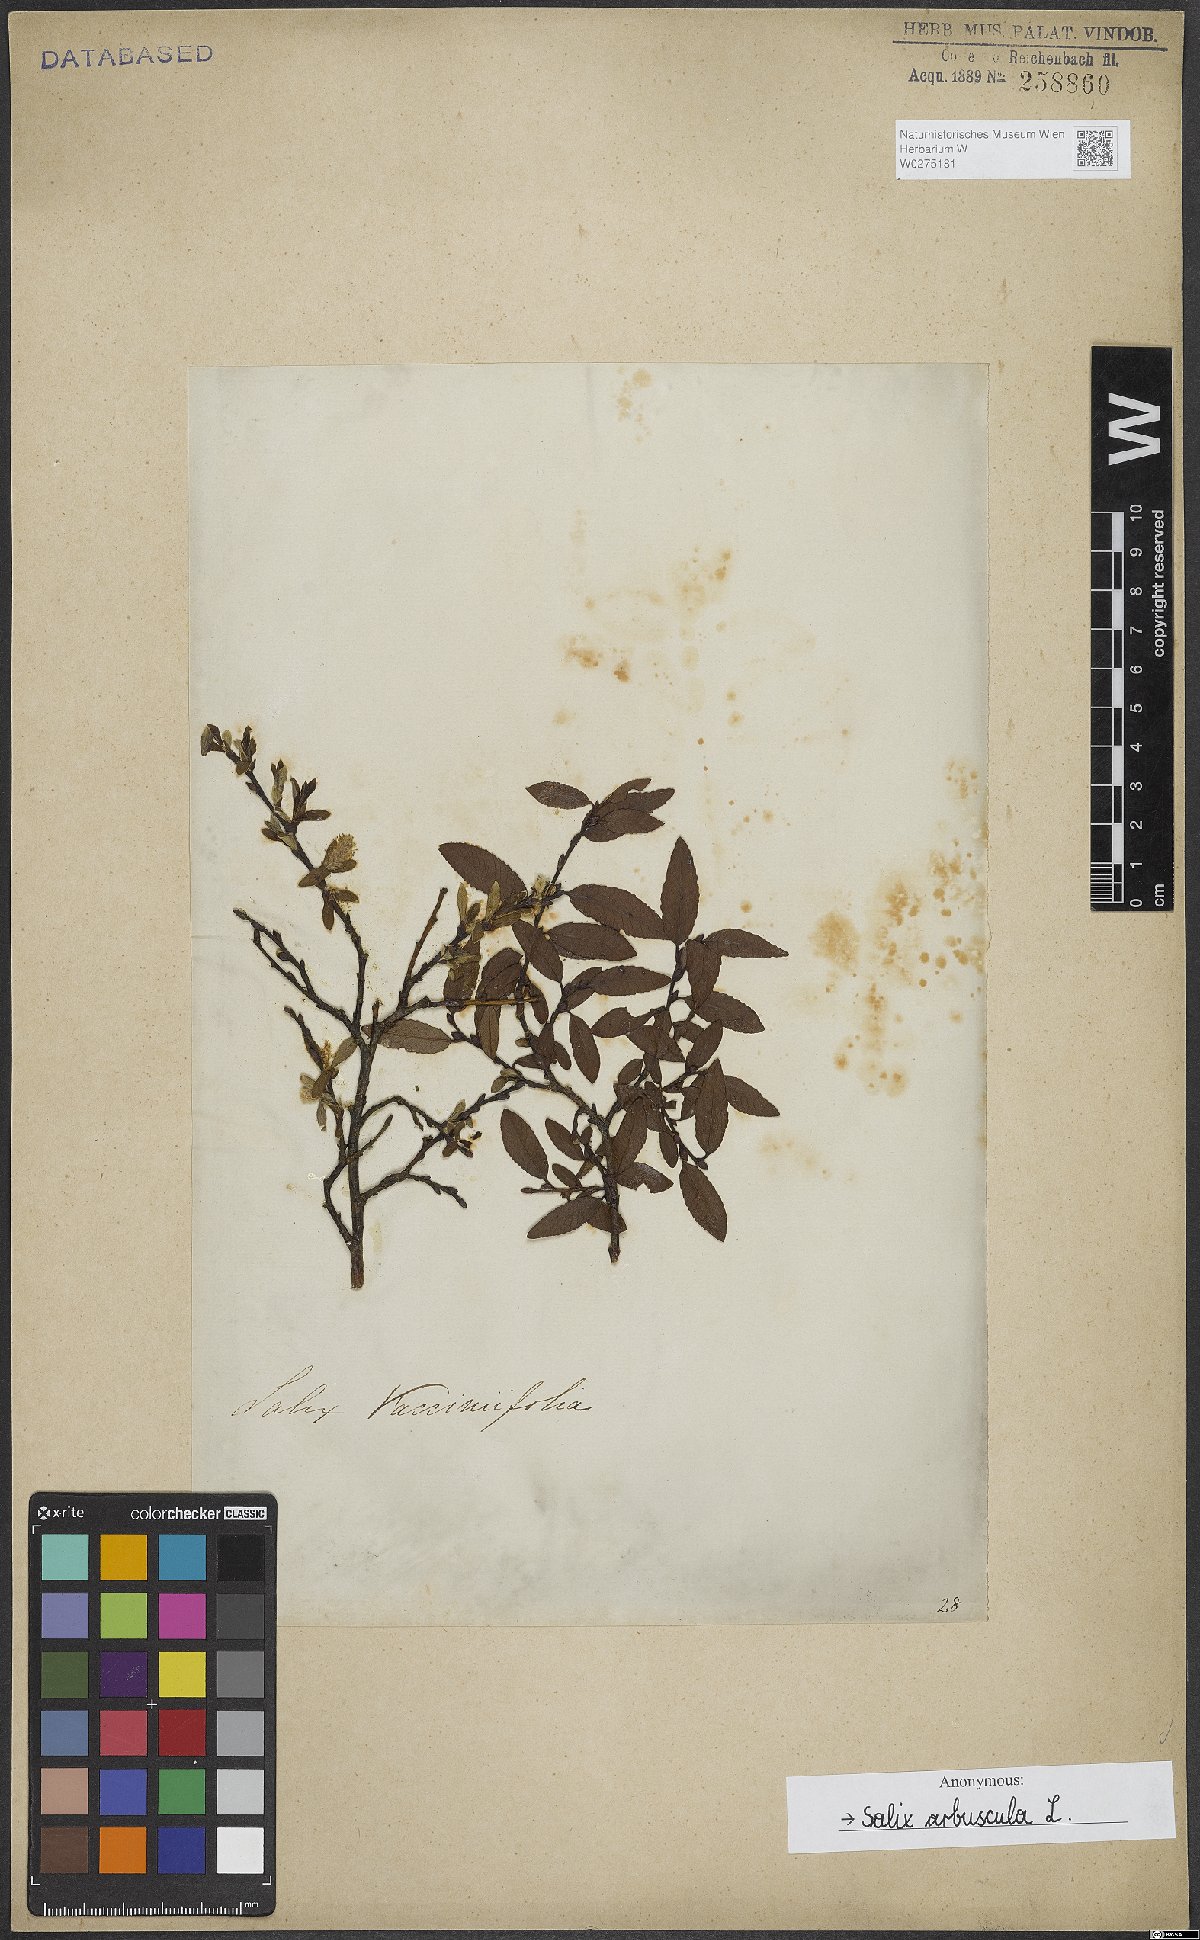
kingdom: Plantae
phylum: Tracheophyta
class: Magnoliopsida
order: Malpighiales
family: Salicaceae
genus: Salix
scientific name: Salix arbuscula
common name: Mountain willow
